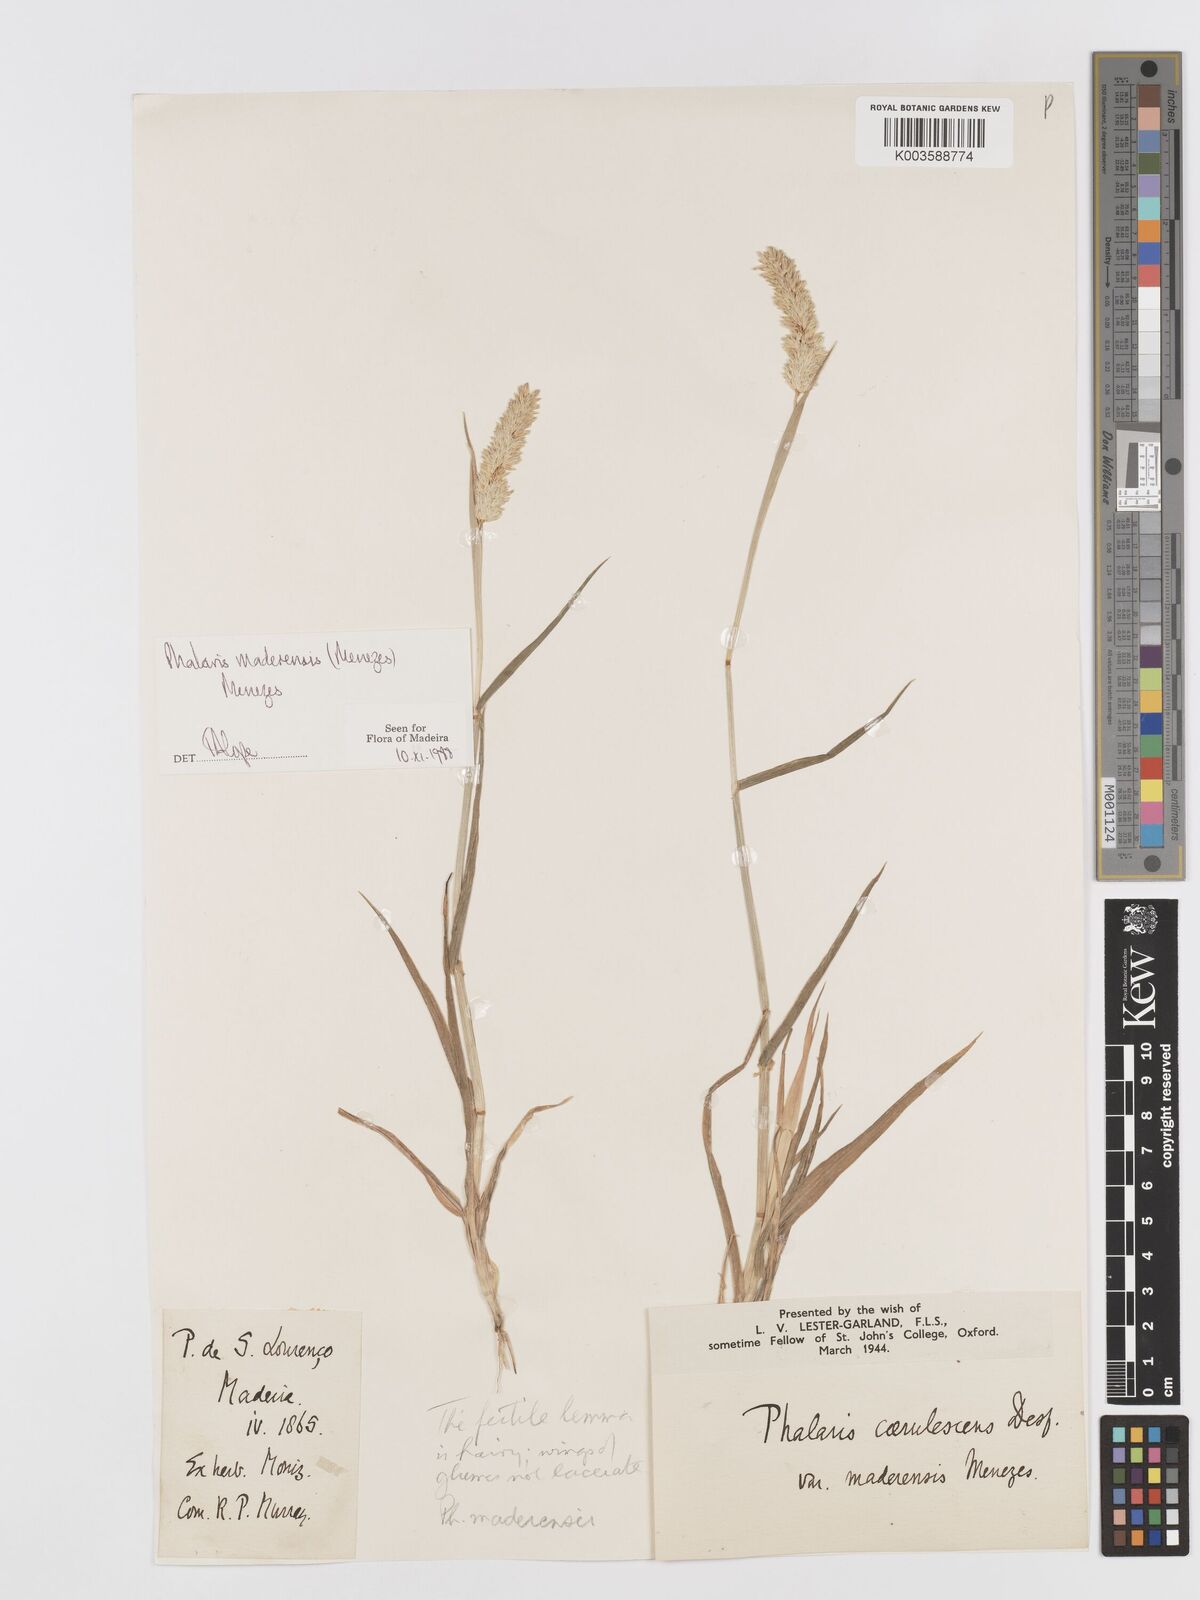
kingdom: Plantae
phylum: Tracheophyta
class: Liliopsida
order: Poales
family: Poaceae
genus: Phalaris
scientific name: Phalaris maderensis
